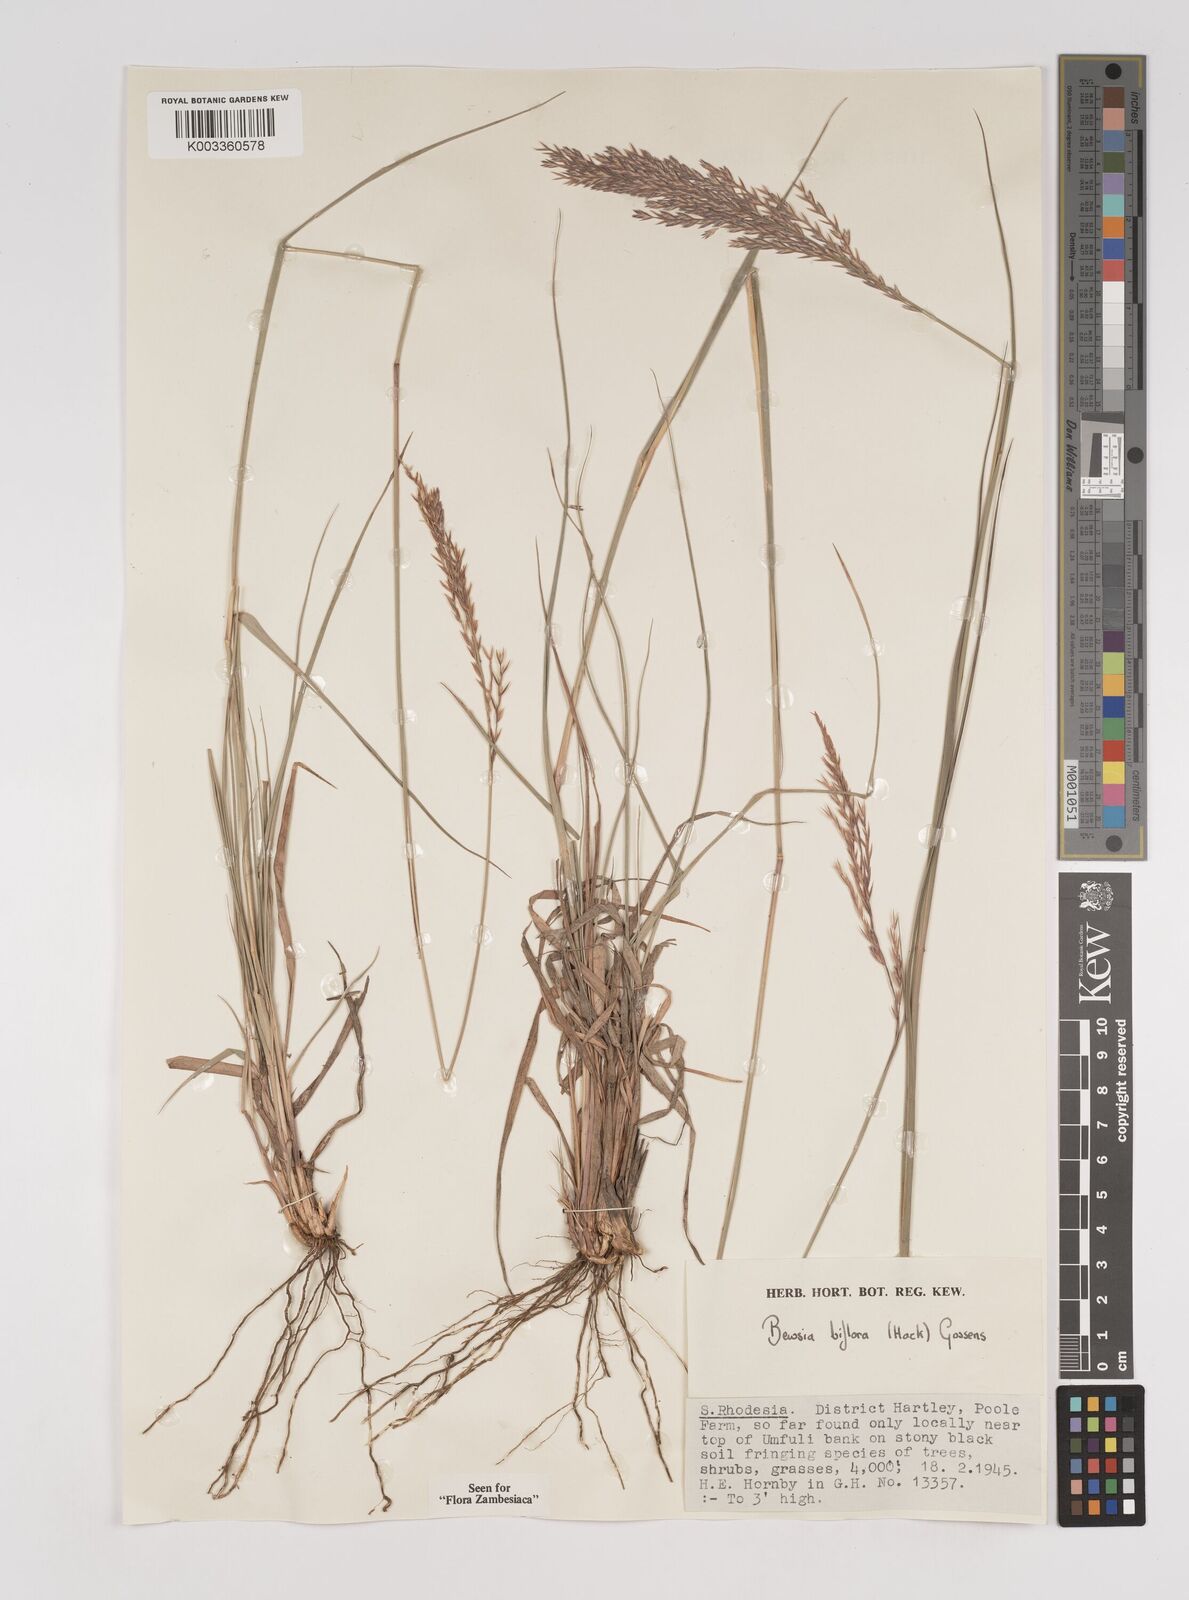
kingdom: Plantae
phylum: Tracheophyta
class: Liliopsida
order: Poales
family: Poaceae
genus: Bewsia
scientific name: Bewsia biflora
